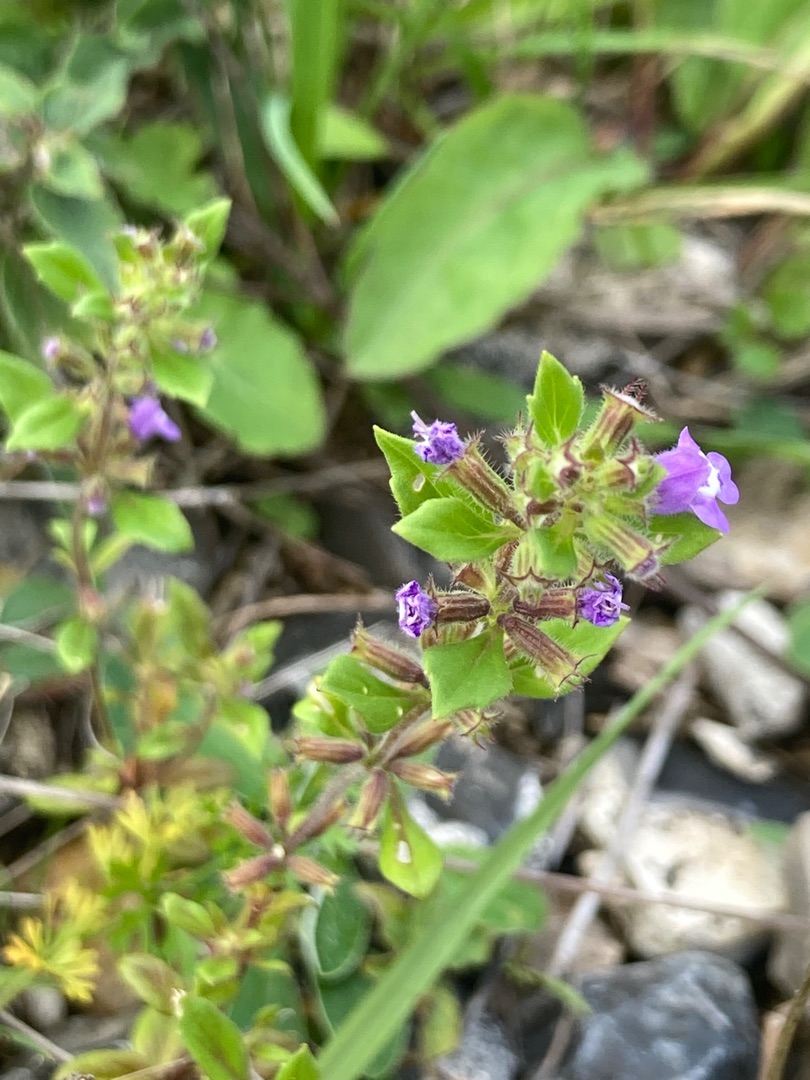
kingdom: Plantae
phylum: Tracheophyta
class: Magnoliopsida
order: Lamiales
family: Lamiaceae
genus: Clinopodium
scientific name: Clinopodium acinos
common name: Voldtimian
